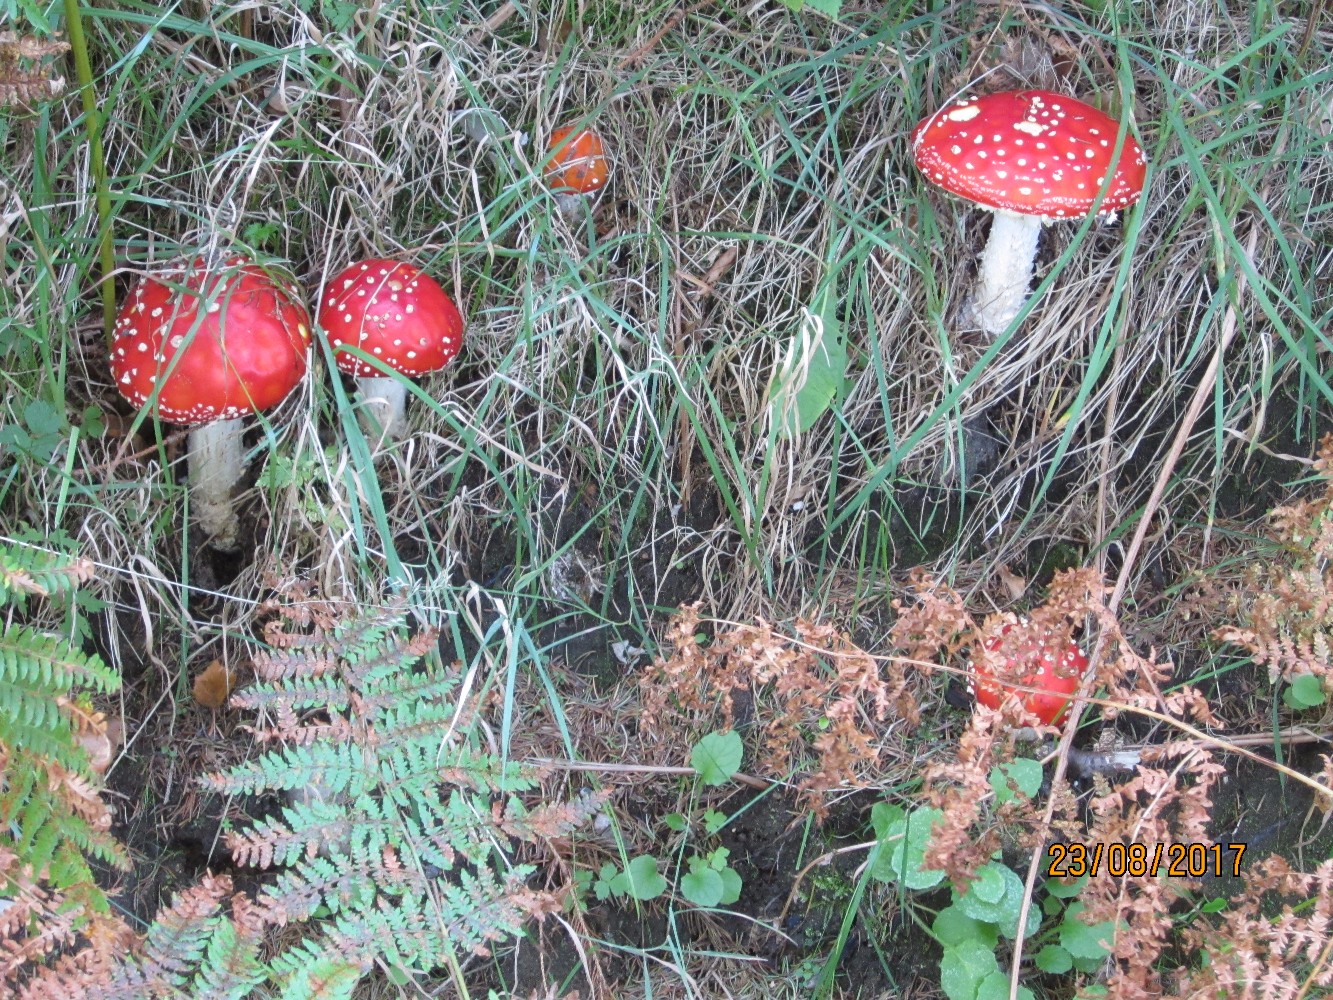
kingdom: Fungi
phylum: Basidiomycota
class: Agaricomycetes
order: Agaricales
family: Amanitaceae
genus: Amanita
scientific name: Amanita muscaria
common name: rød fluesvamp
